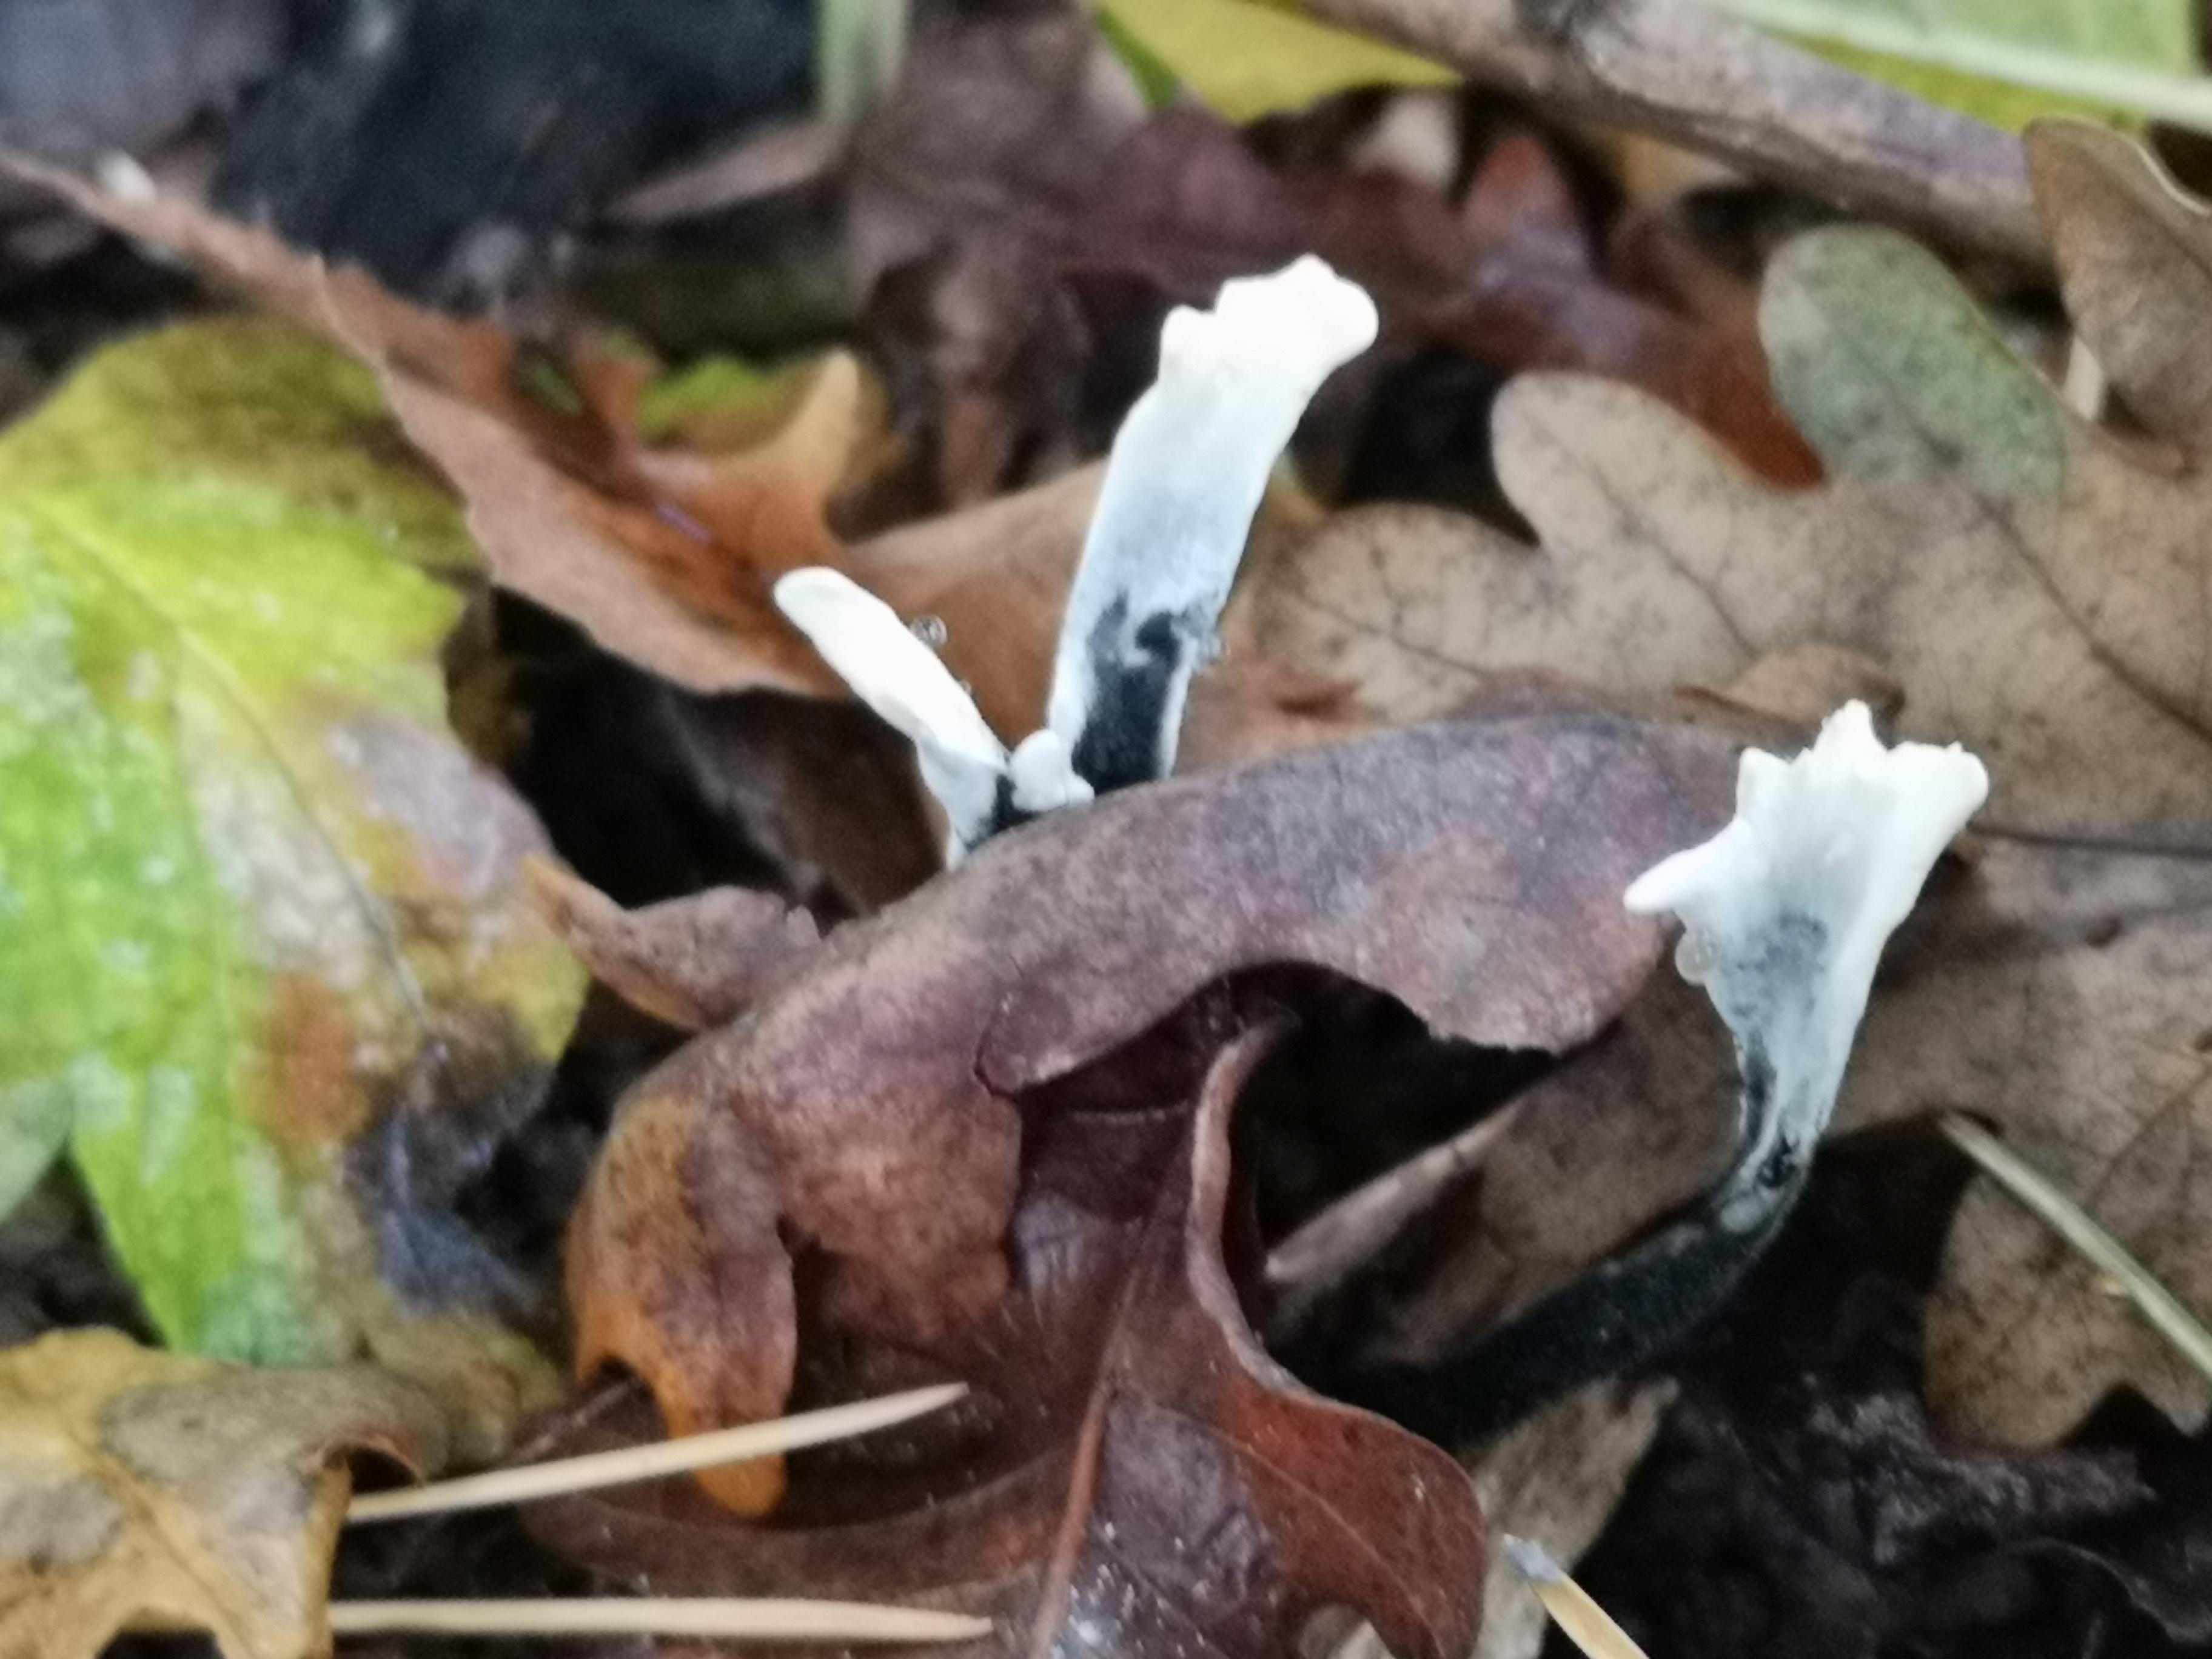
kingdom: Fungi
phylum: Ascomycota
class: Sordariomycetes
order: Xylariales
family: Xylariaceae
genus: Xylaria
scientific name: Xylaria hypoxylon
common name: grenet stødsvamp
